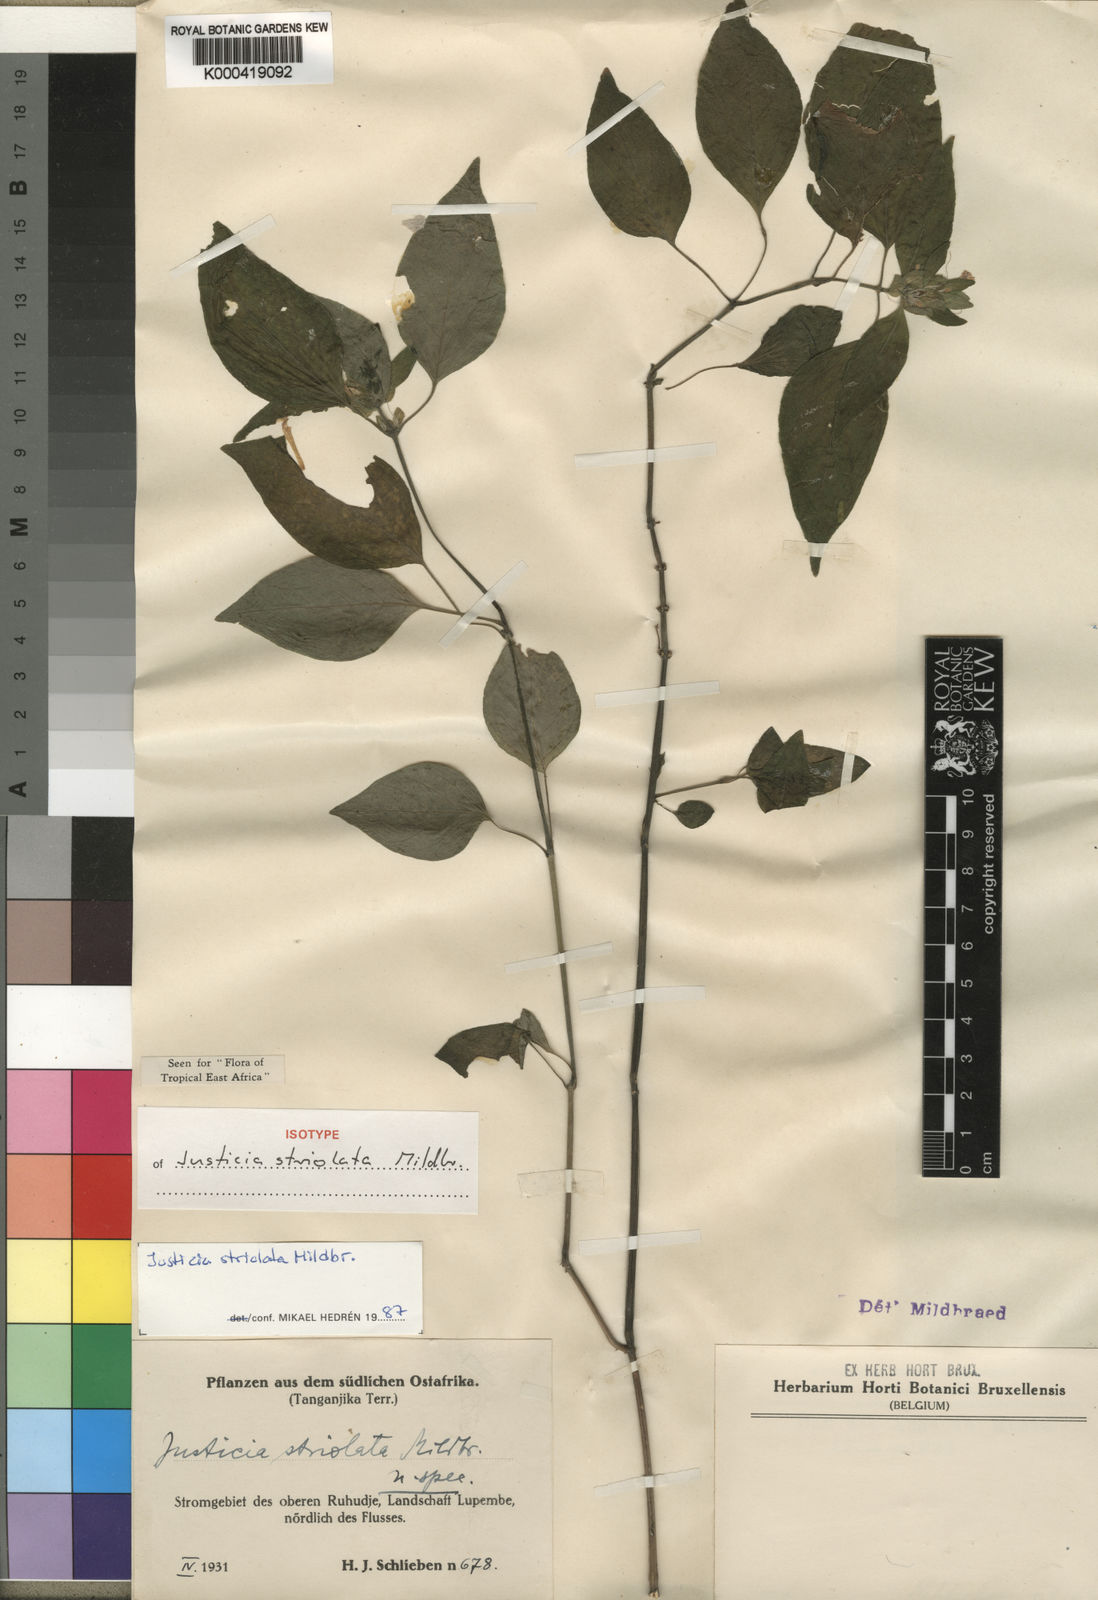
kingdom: Plantae
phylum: Tracheophyta
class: Magnoliopsida
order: Lamiales
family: Acanthaceae
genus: Justicia
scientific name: Justicia striolata
